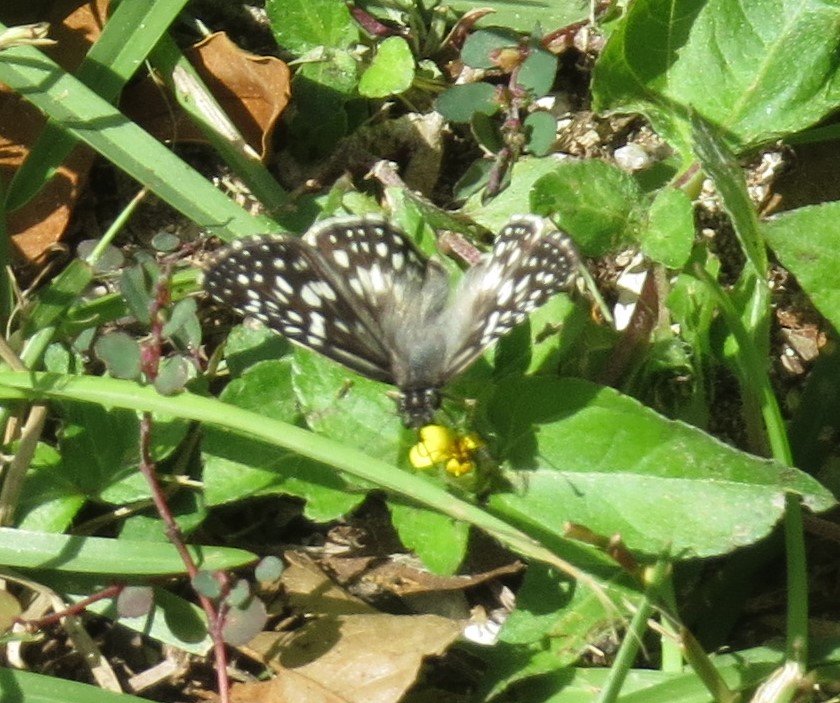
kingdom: Animalia
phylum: Arthropoda
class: Insecta
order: Lepidoptera
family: Hesperiidae
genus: Pyrgus
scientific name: Pyrgus oileus
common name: Tropical Checkered-Skipper
